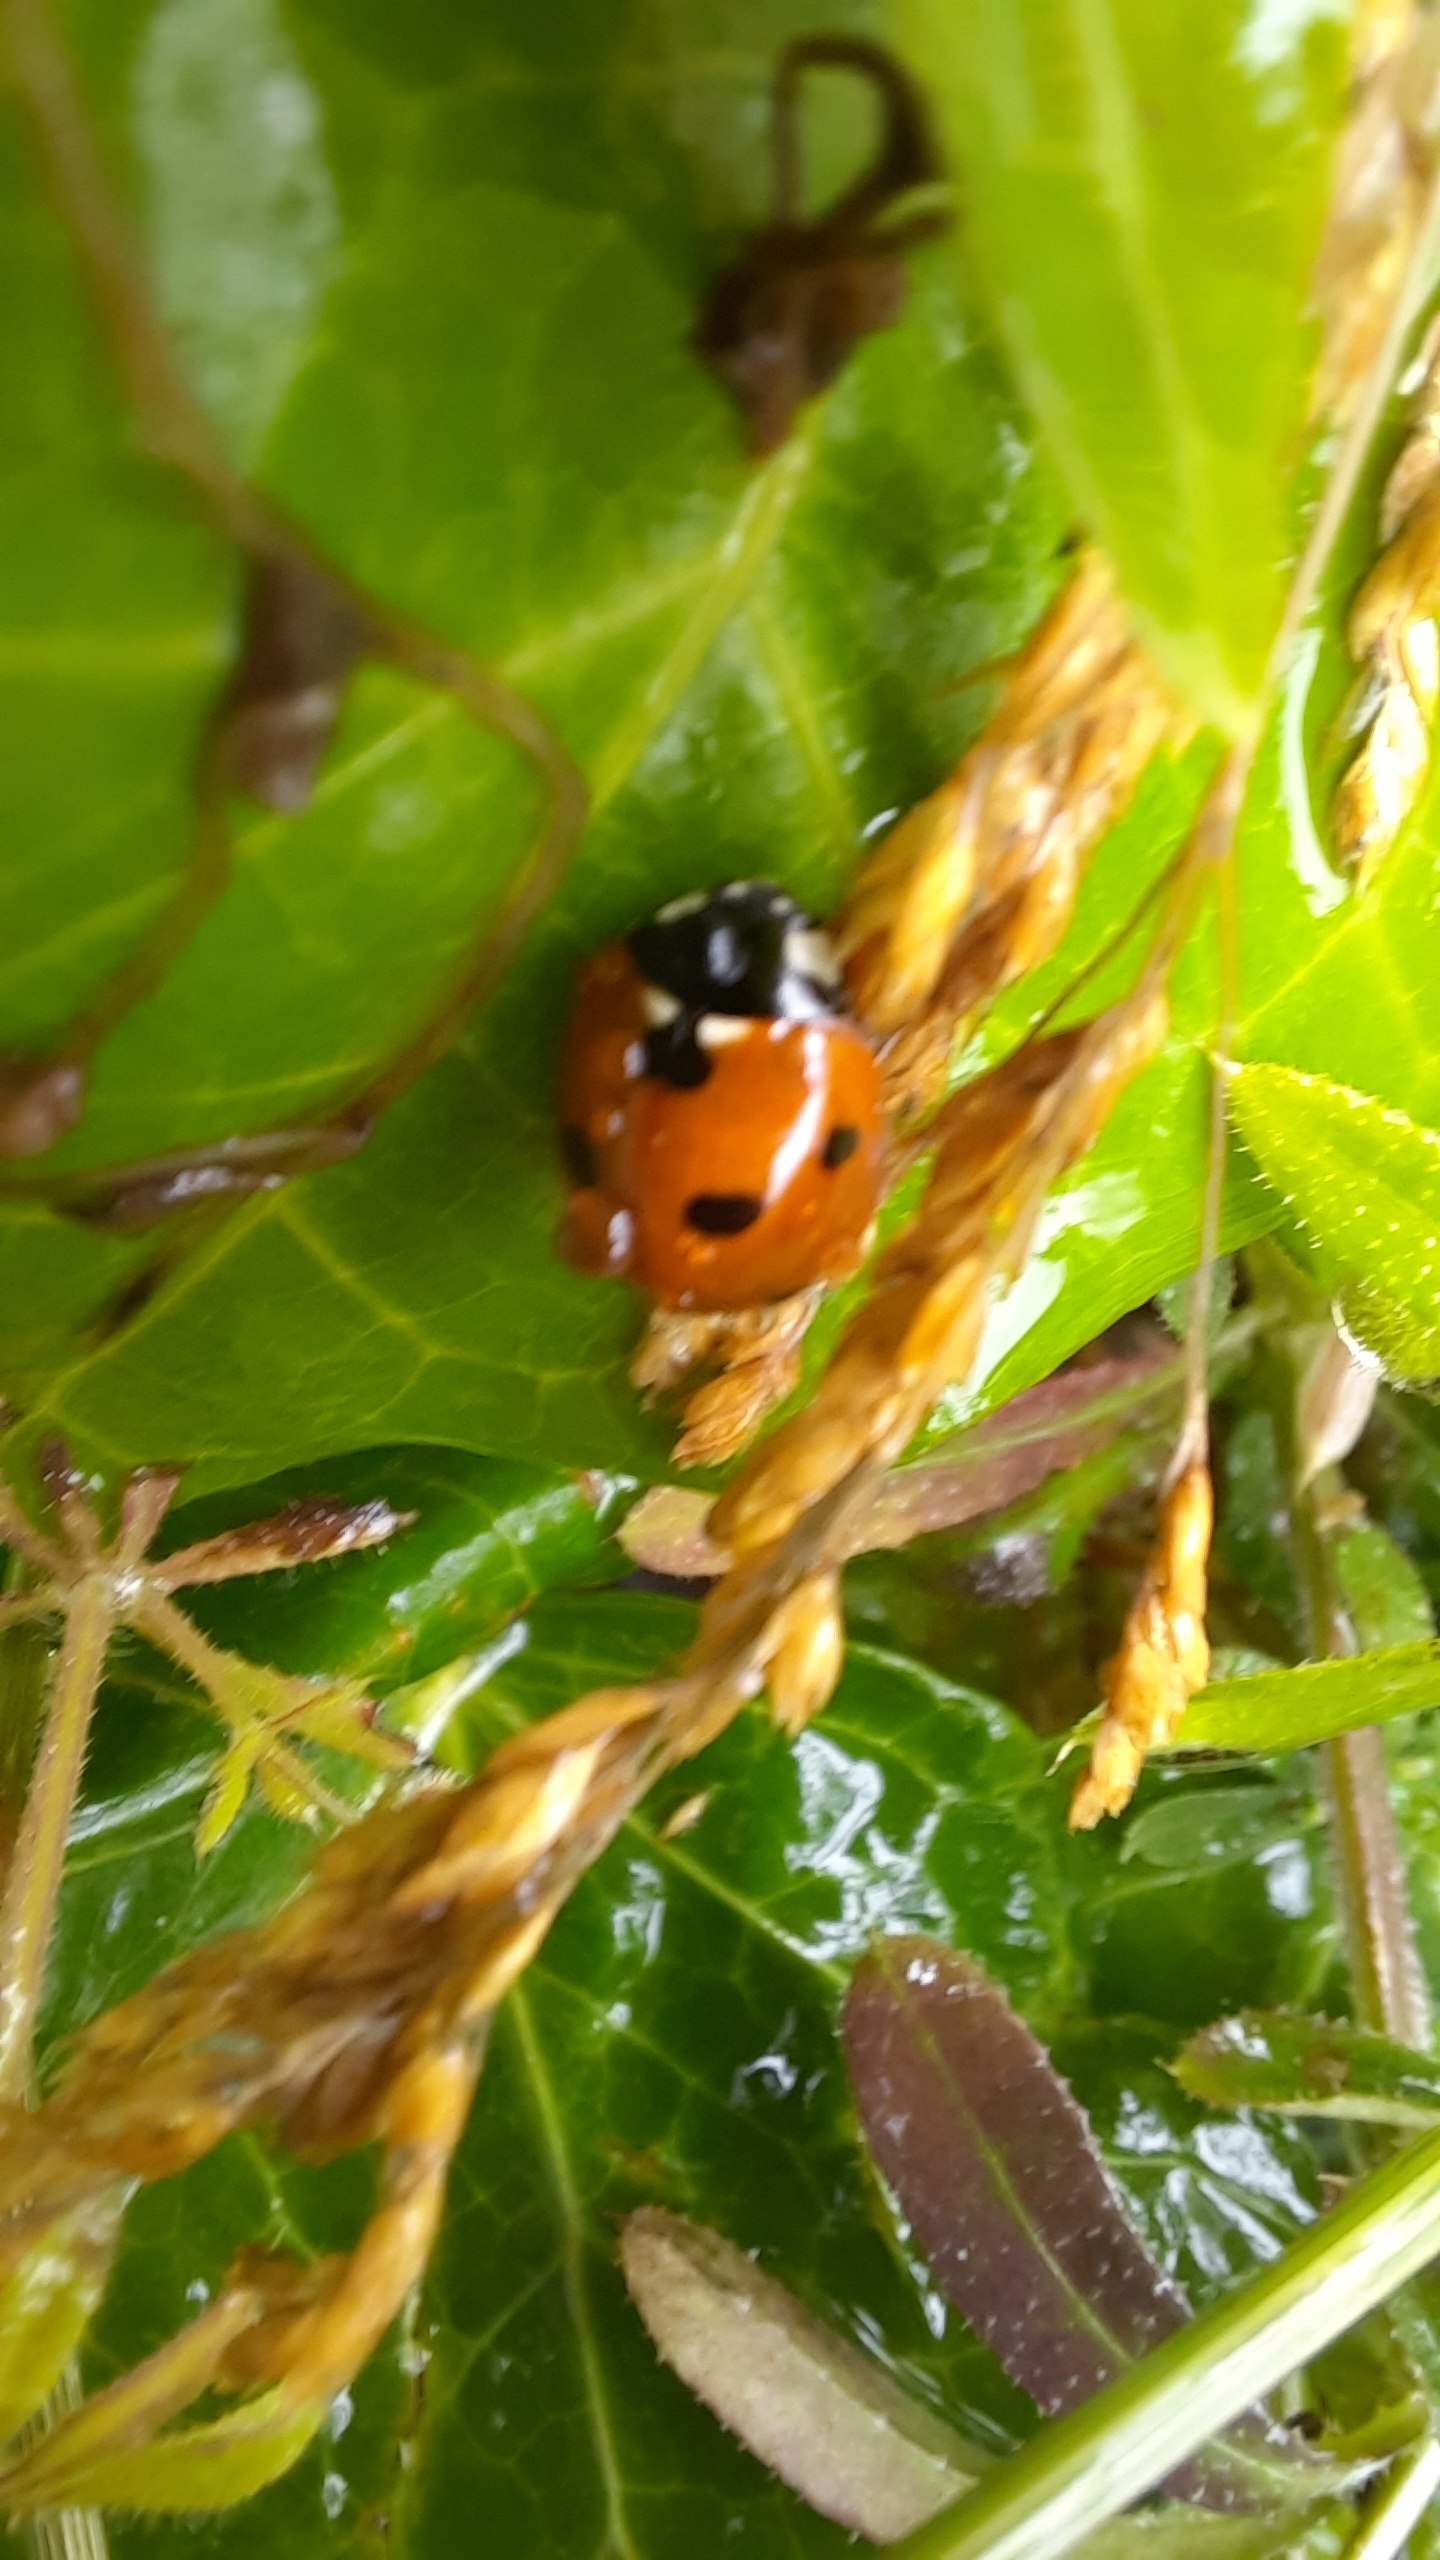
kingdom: Animalia
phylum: Arthropoda
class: Insecta
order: Coleoptera
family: Coccinellidae
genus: Coccinella
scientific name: Coccinella septempunctata
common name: Syvplettet mariehøne
